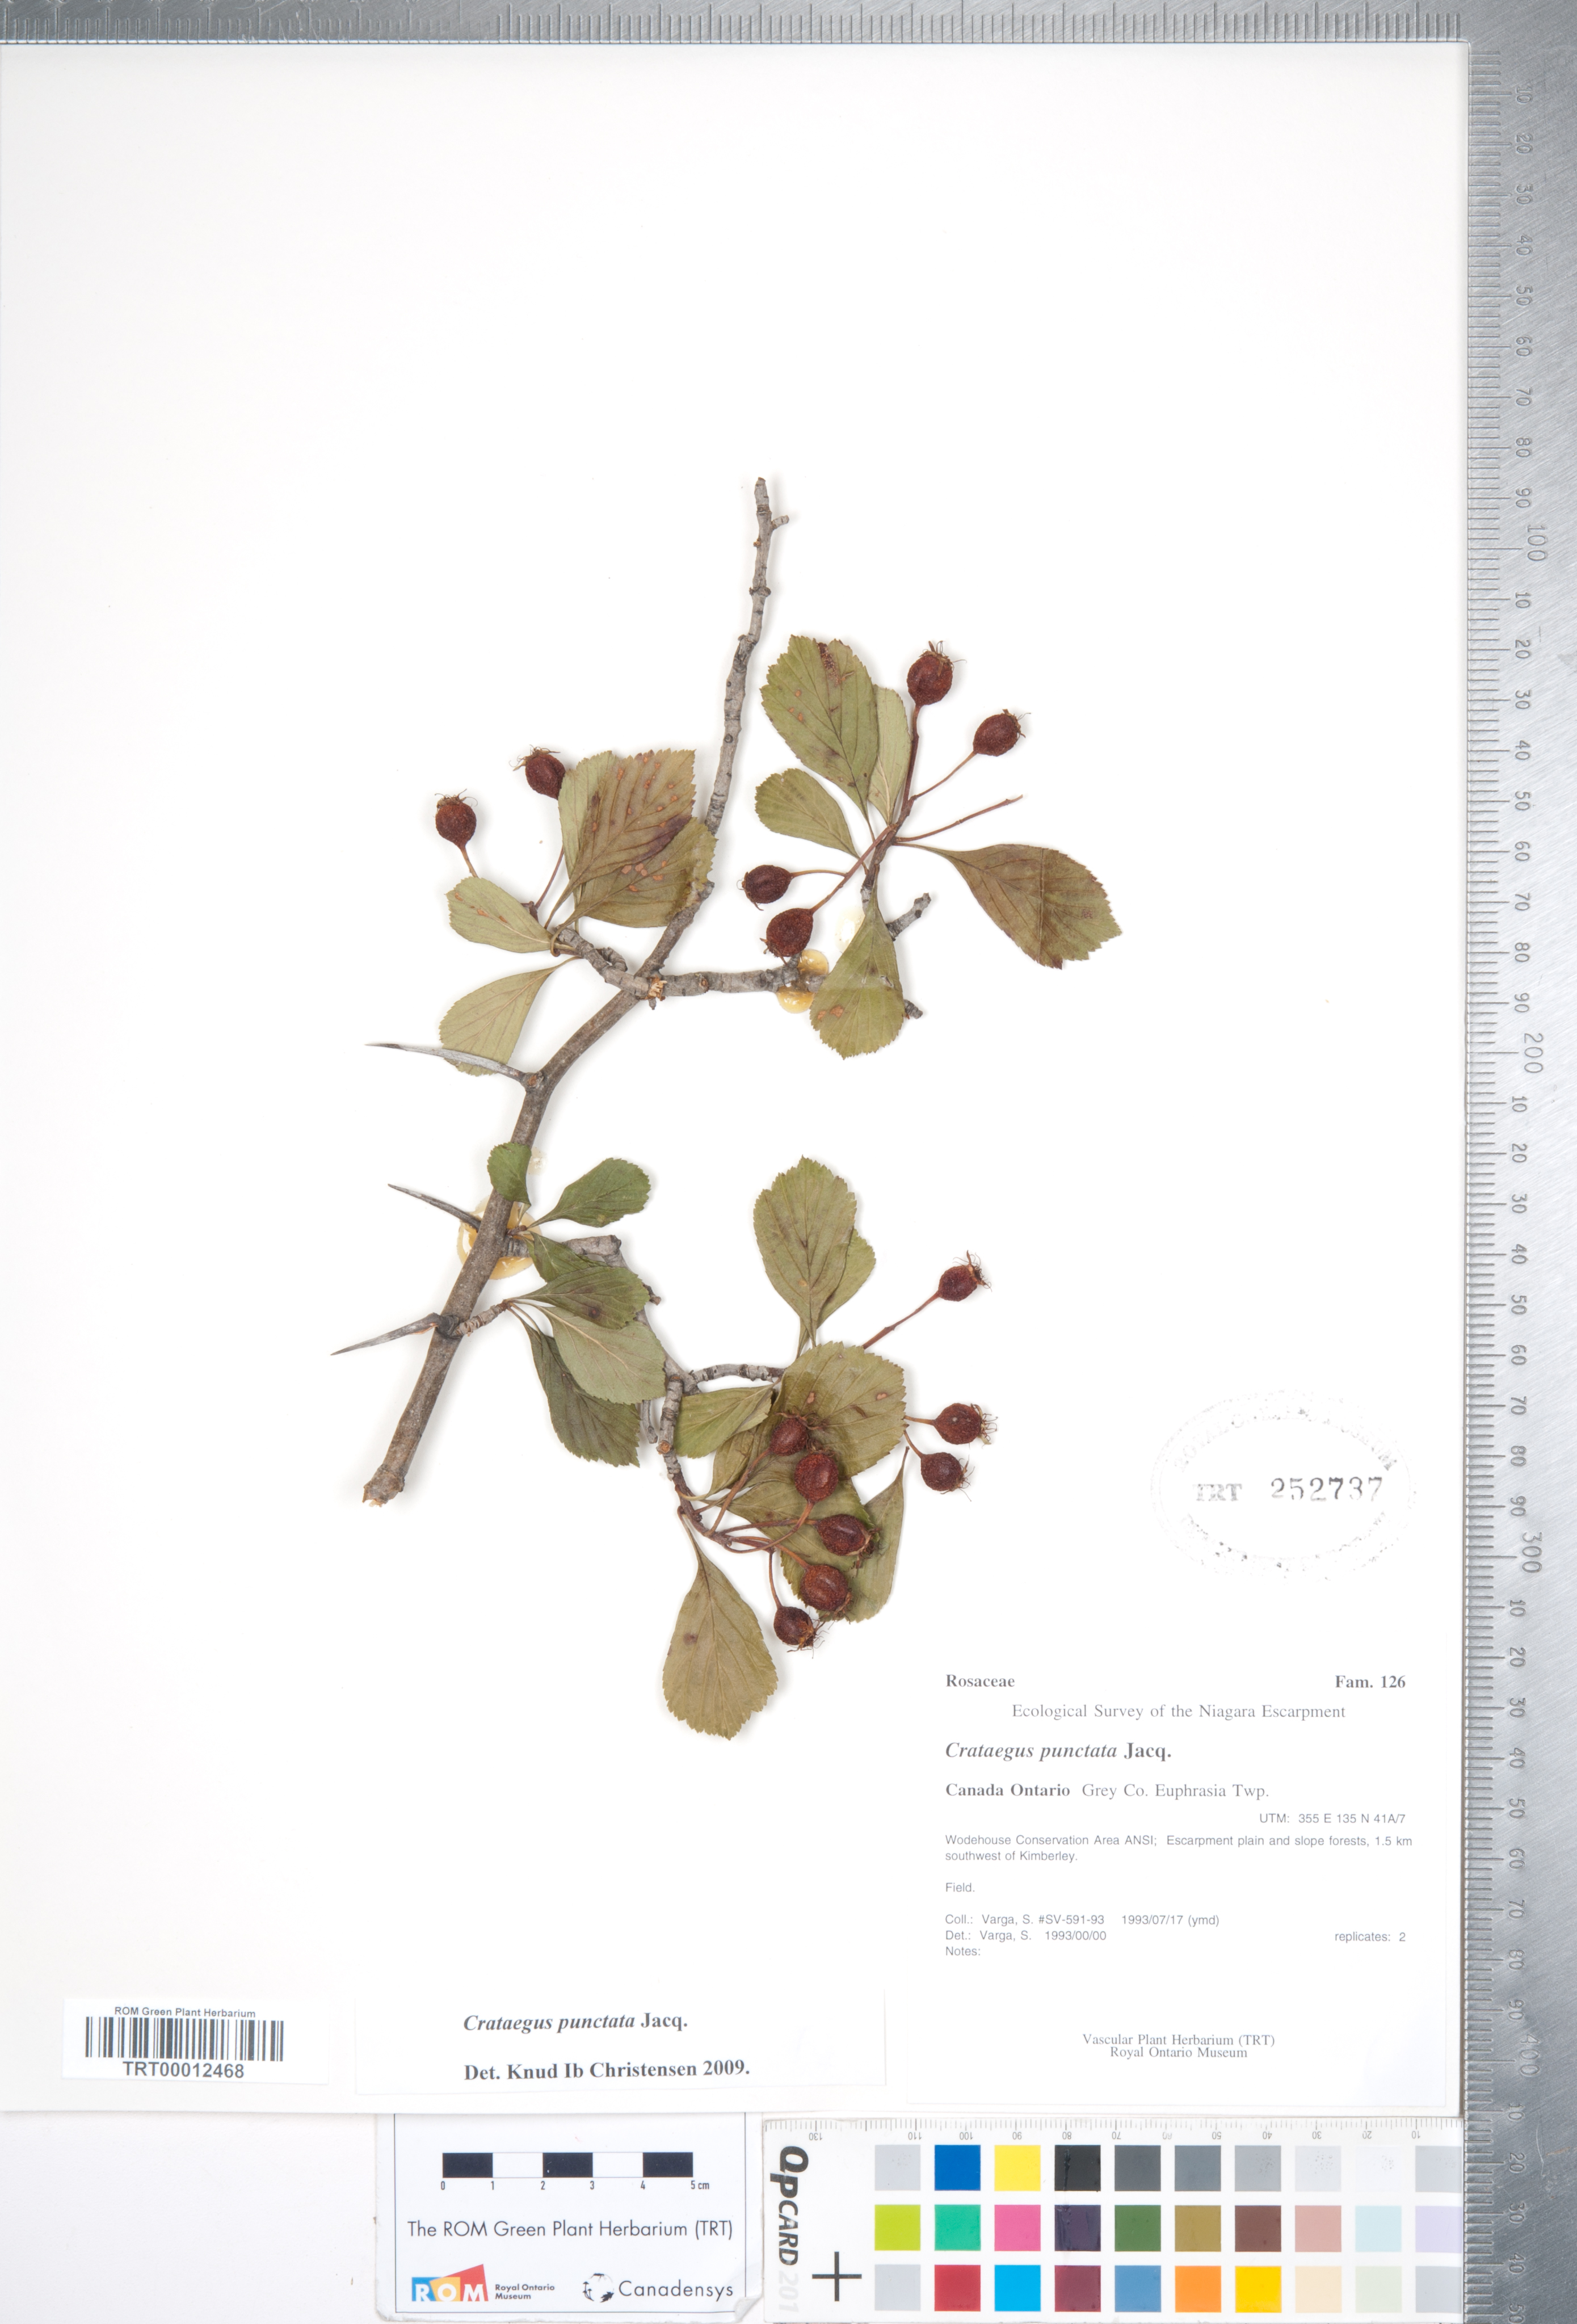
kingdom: Plantae
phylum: Tracheophyta
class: Magnoliopsida
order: Rosales
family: Rosaceae
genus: Crataegus
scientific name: Crataegus punctata
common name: Dotted hawthorn
